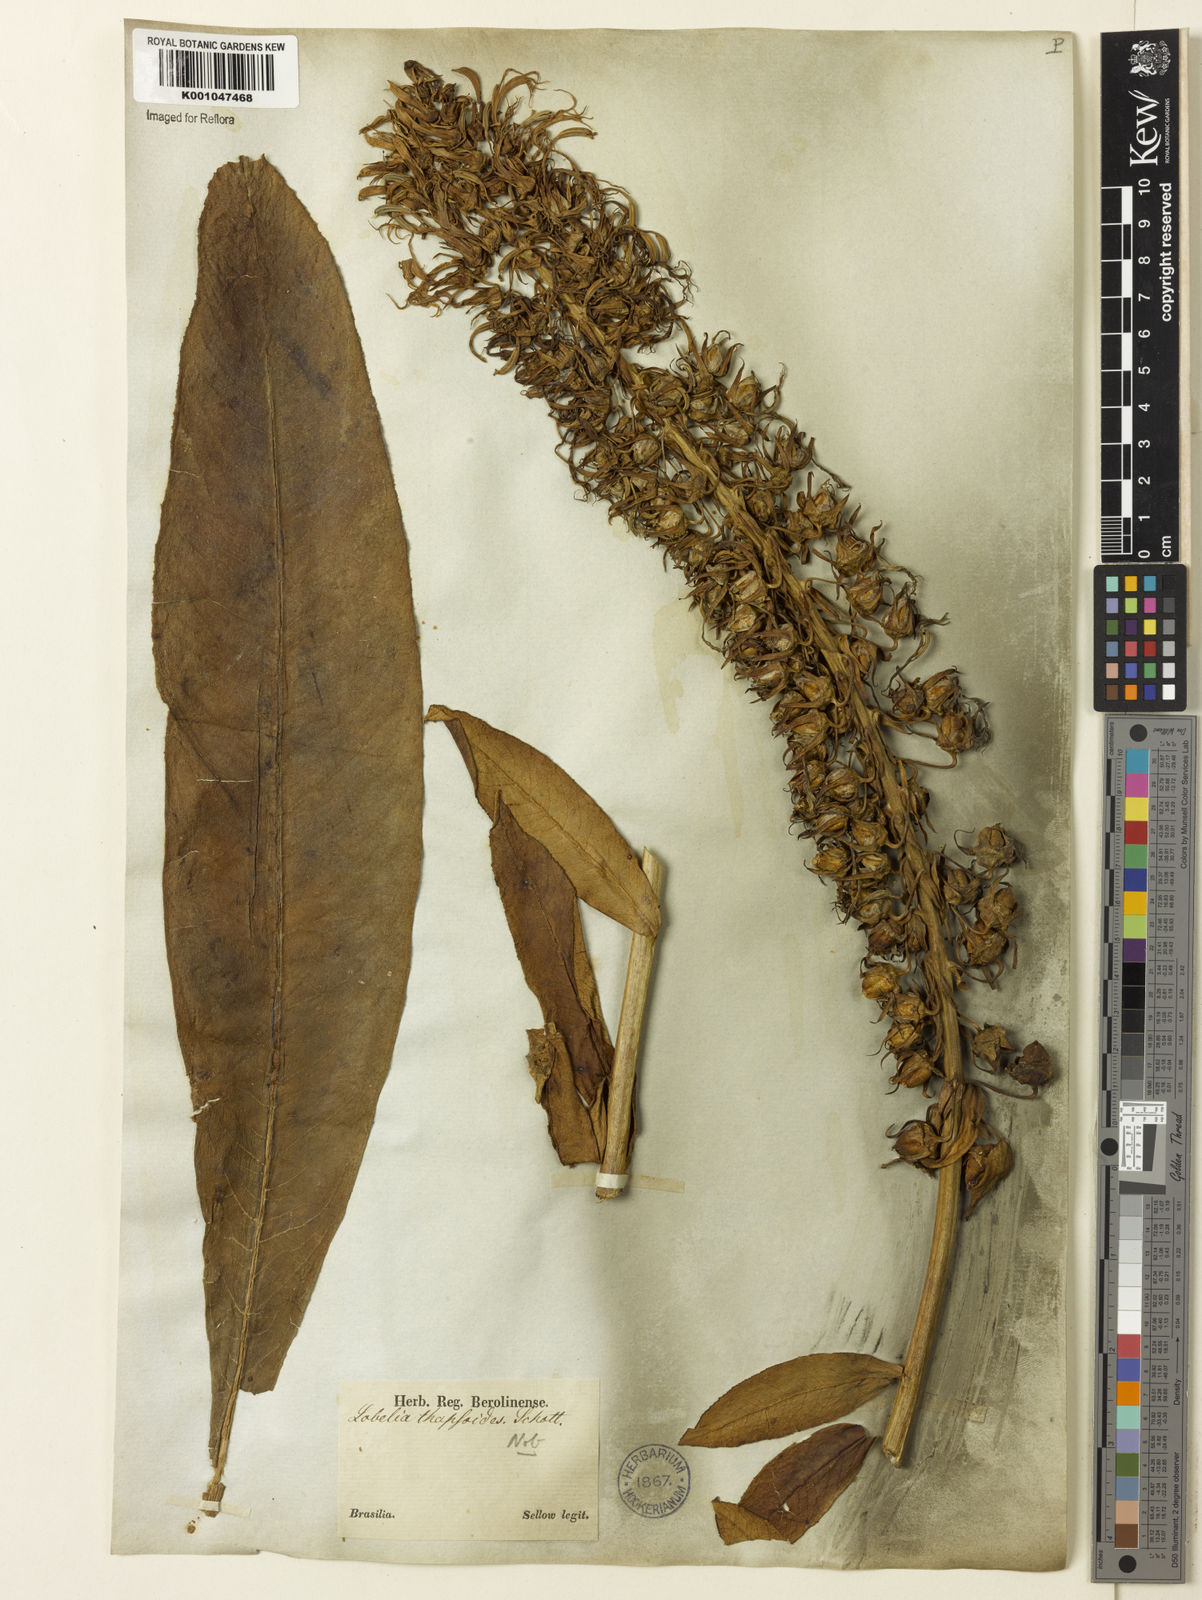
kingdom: Plantae
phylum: Tracheophyta
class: Magnoliopsida
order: Asterales
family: Campanulaceae
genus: Lobelia
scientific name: Lobelia organensis
